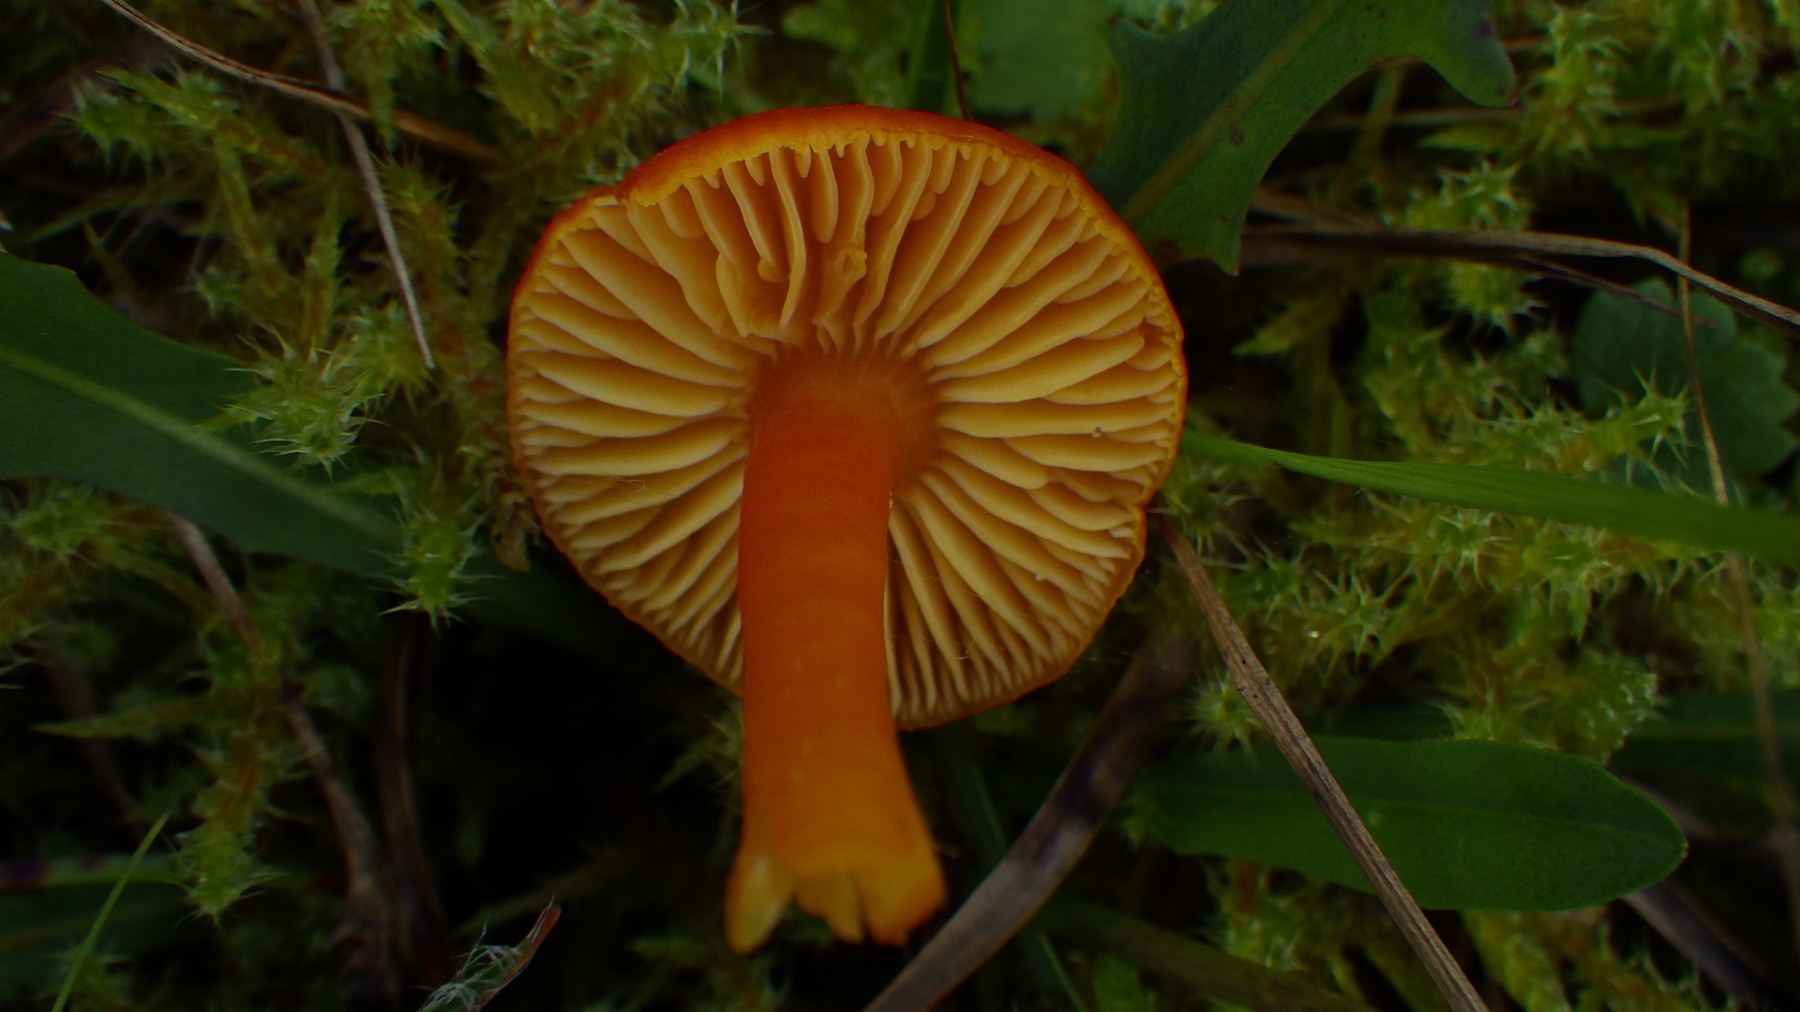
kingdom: Fungi
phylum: Basidiomycota
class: Agaricomycetes
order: Agaricales
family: Hygrophoraceae
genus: Hygrocybe
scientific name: Hygrocybe miniata
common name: mønje-vokshat
